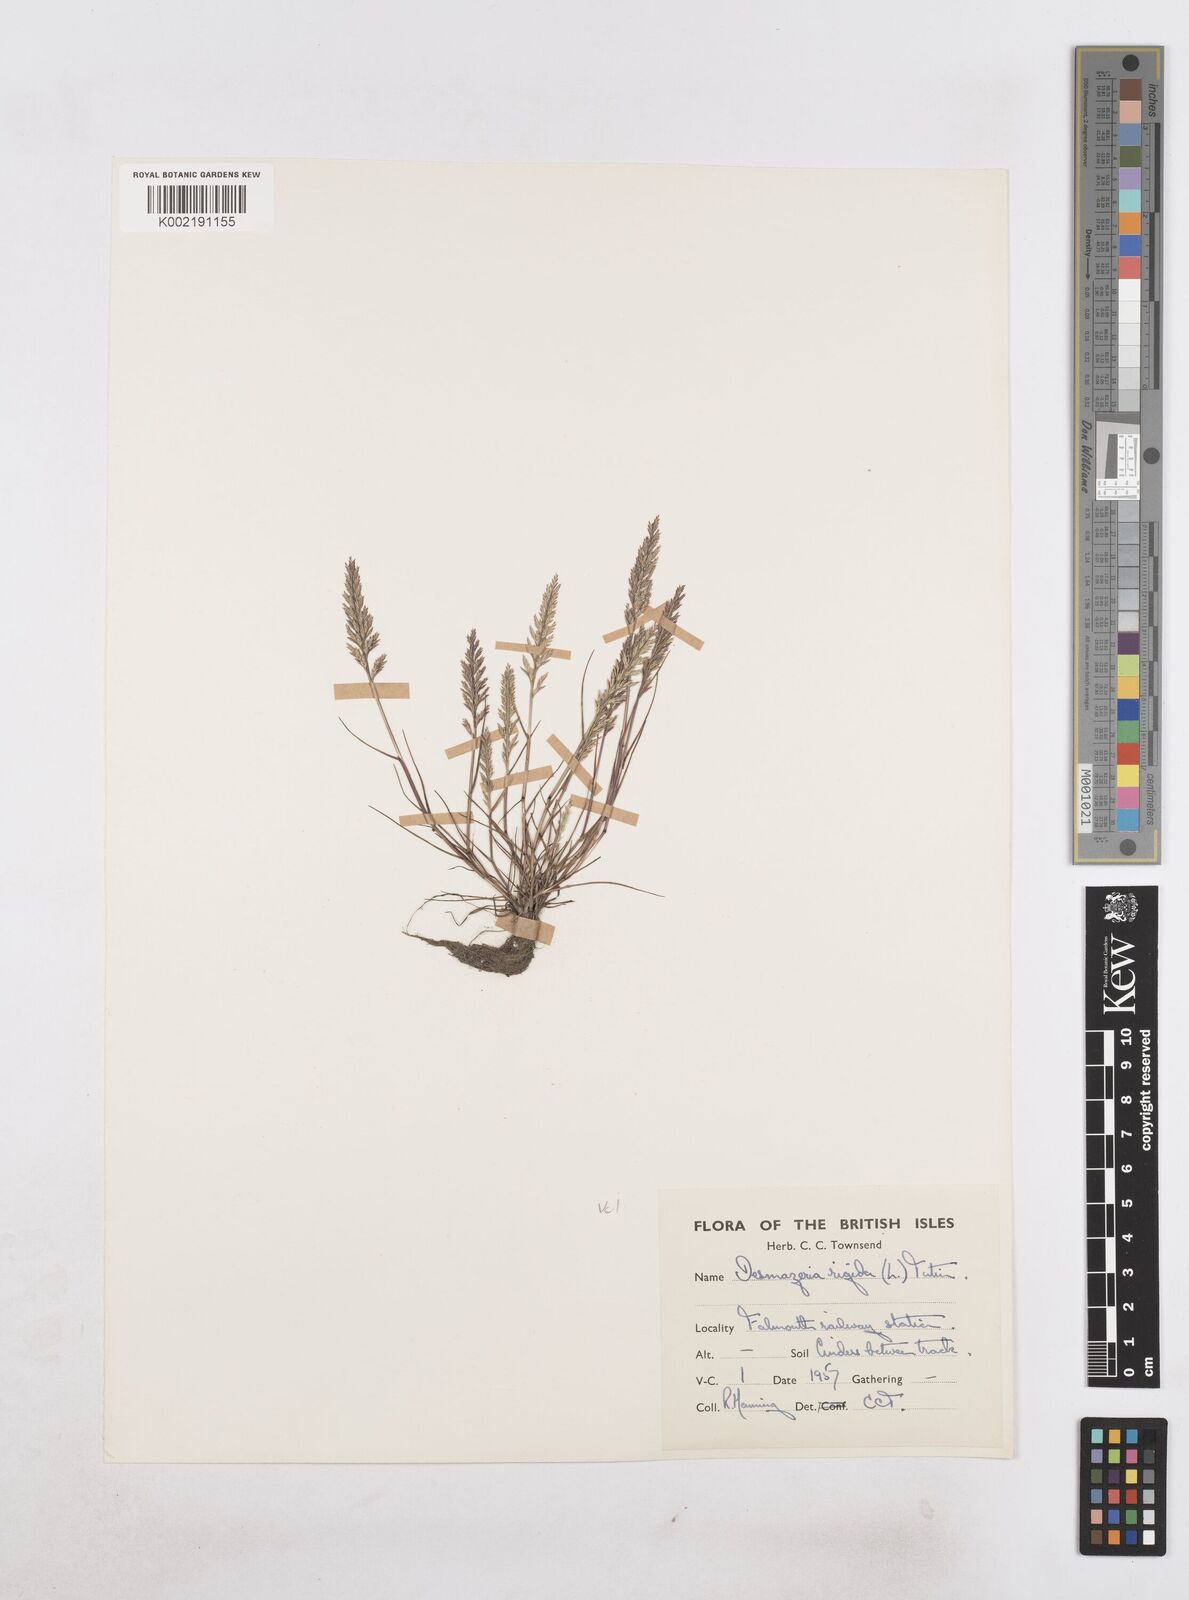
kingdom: Plantae
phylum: Tracheophyta
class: Liliopsida
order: Poales
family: Poaceae
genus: Catapodium
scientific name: Catapodium rigidum
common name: Fern-grass
